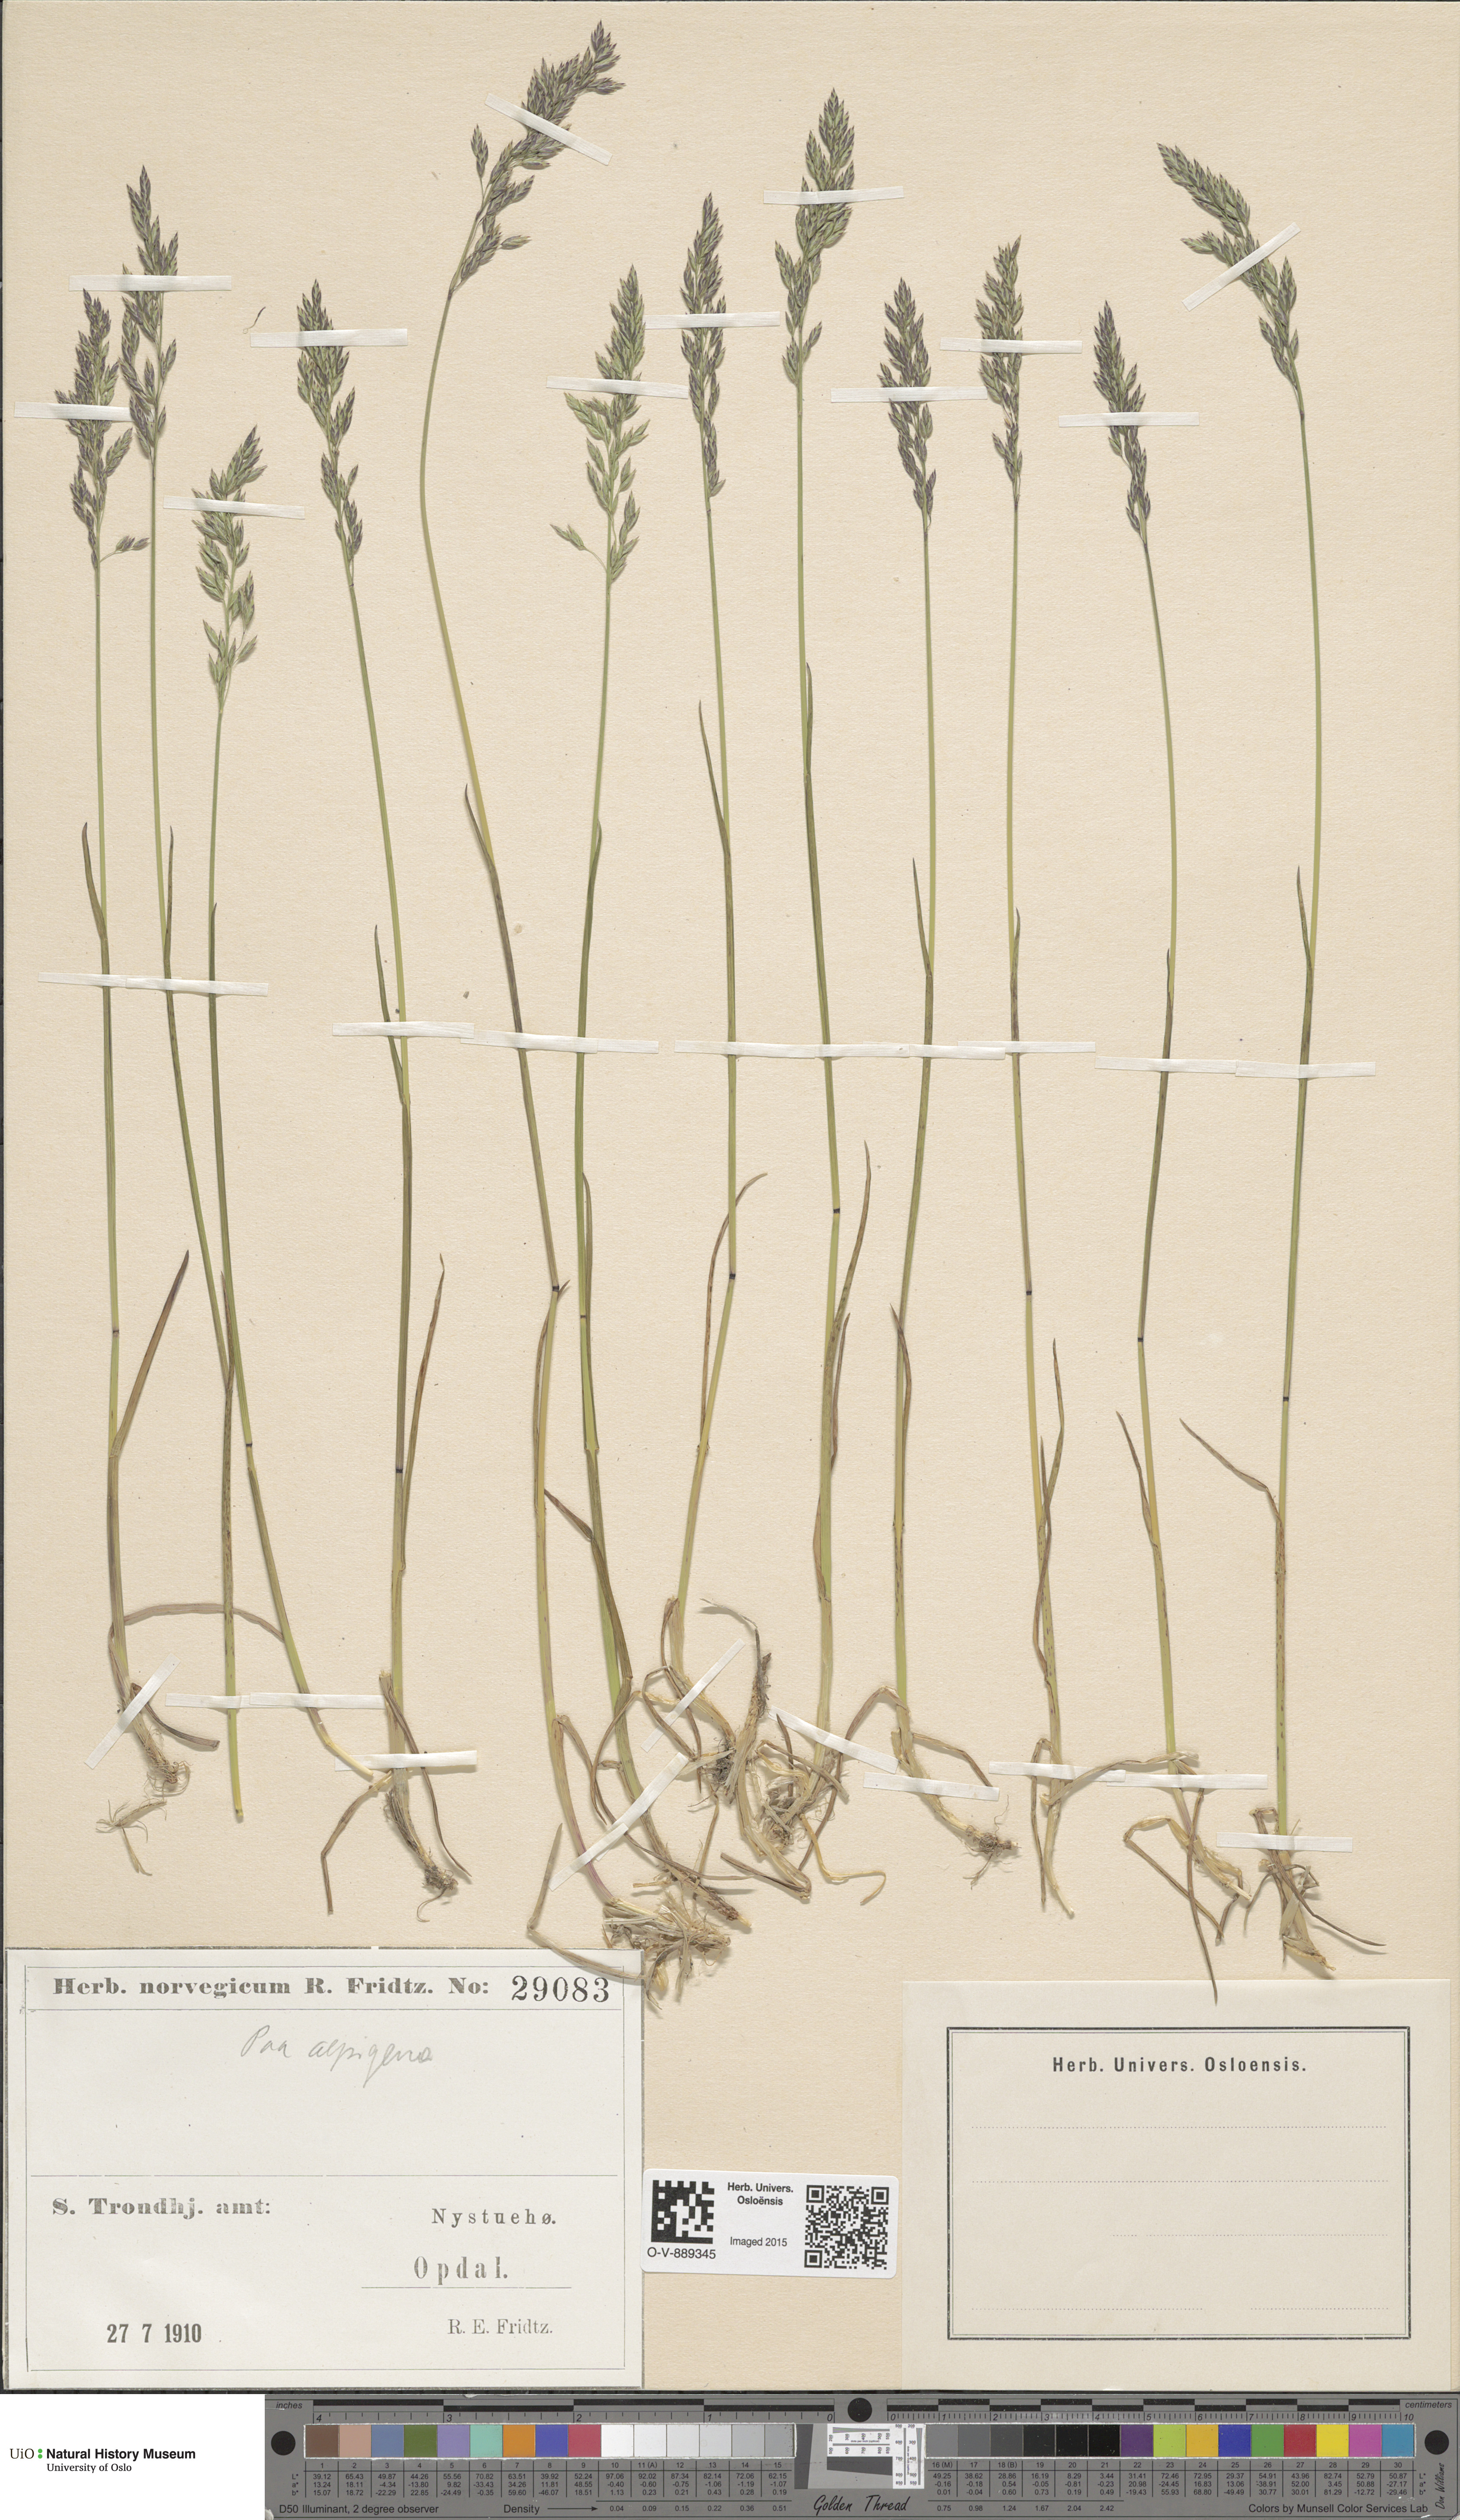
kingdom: Plantae
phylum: Tracheophyta
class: Liliopsida
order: Poales
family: Poaceae
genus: Poa
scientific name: Poa alpigena
